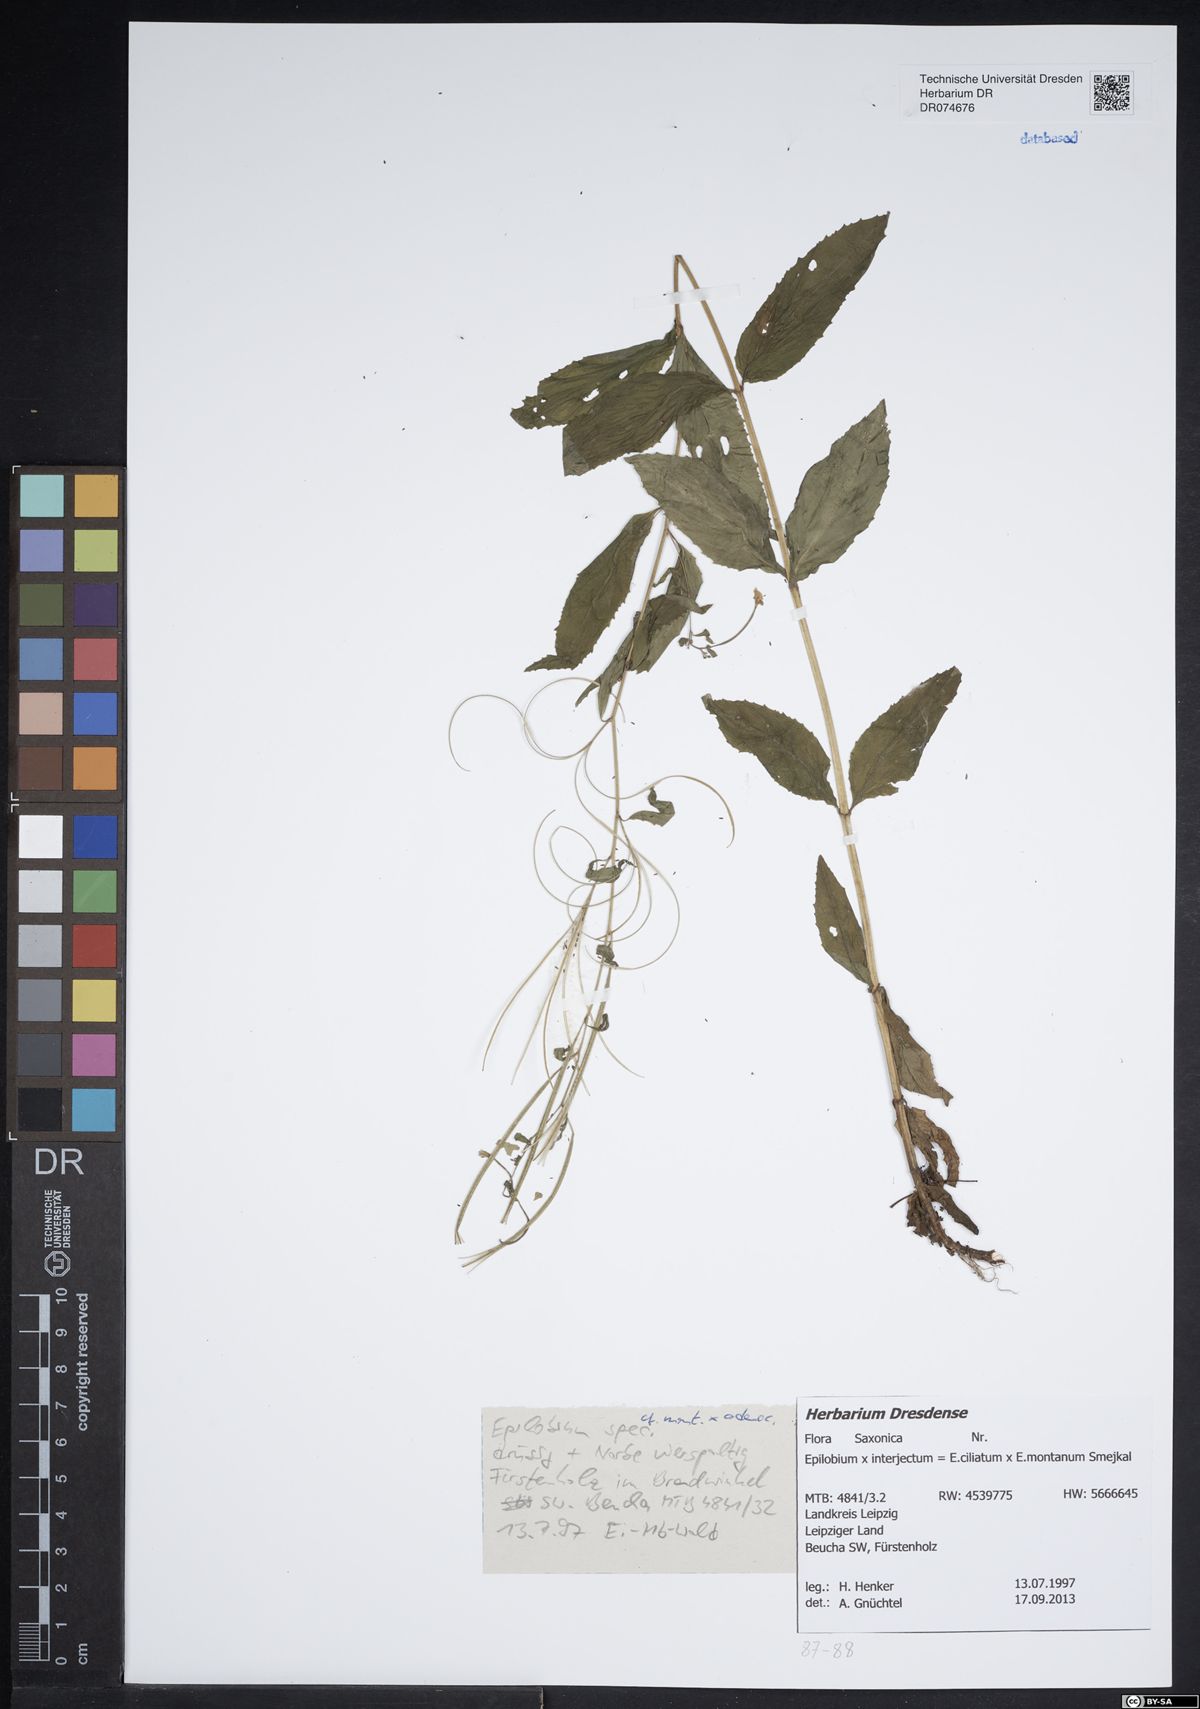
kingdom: Plantae
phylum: Tracheophyta
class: Magnoliopsida
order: Myrtales
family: Onagraceae
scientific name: Onagraceae
